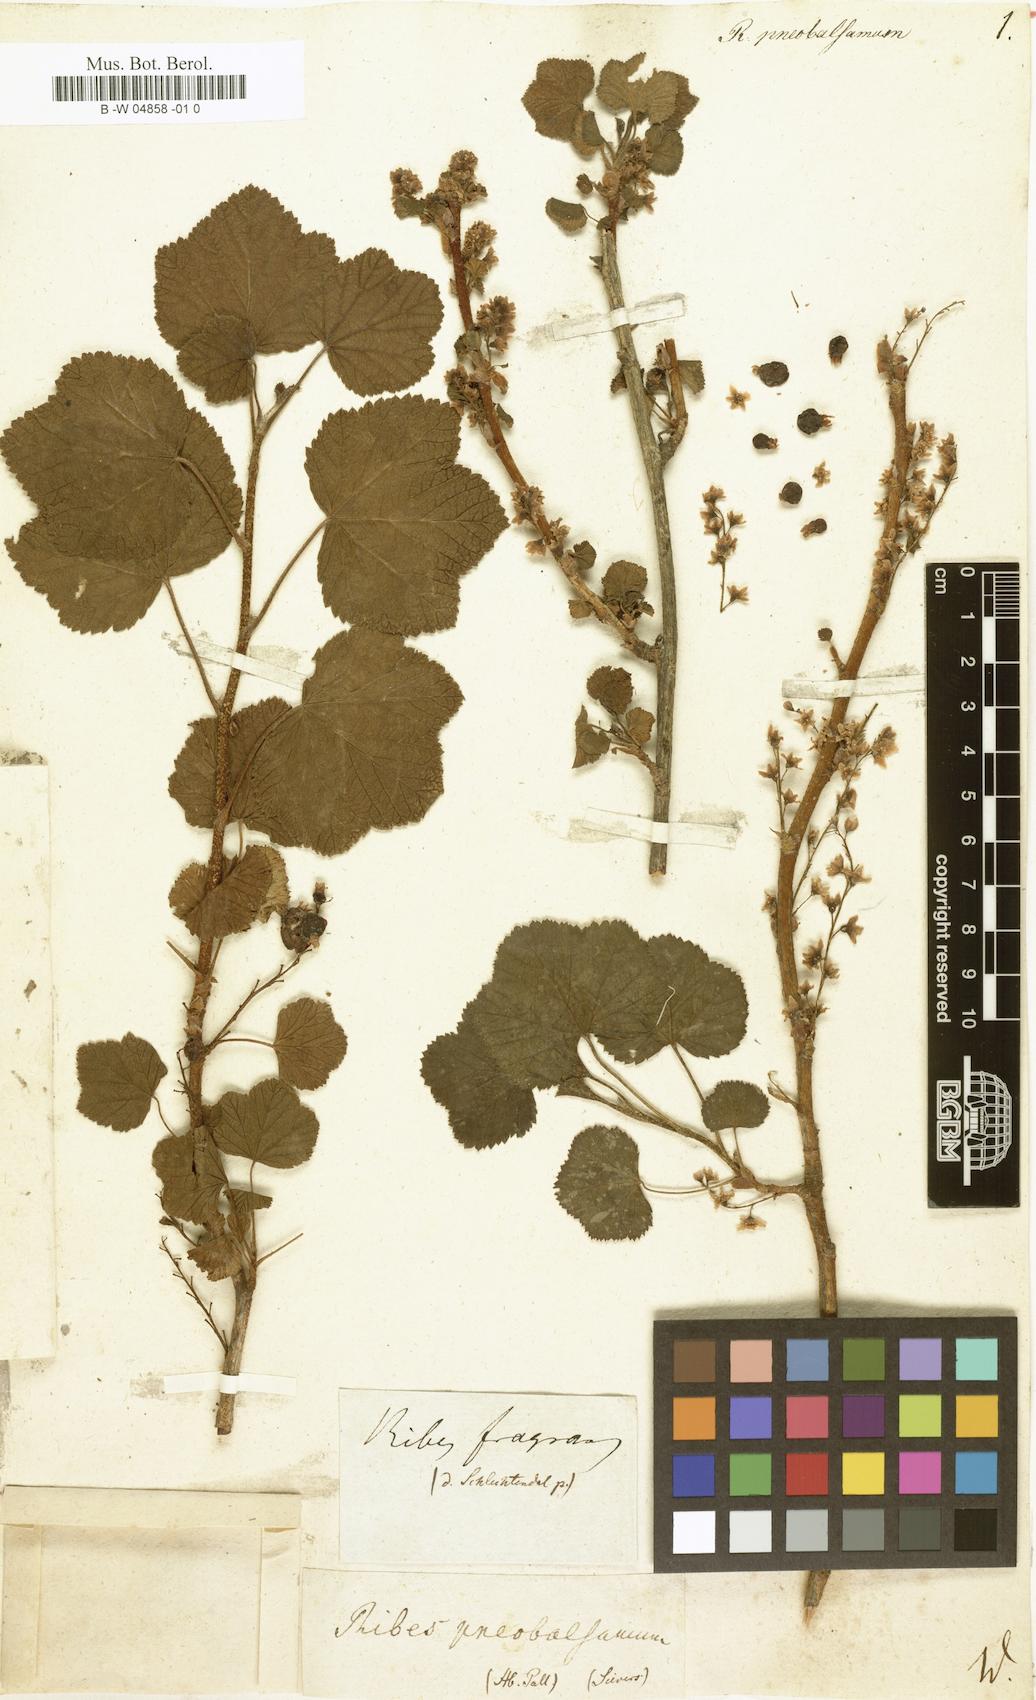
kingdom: Plantae
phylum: Tracheophyta
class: Magnoliopsida
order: Saxifragales
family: Grossulariaceae
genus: Ribes
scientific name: Ribes fragrans
